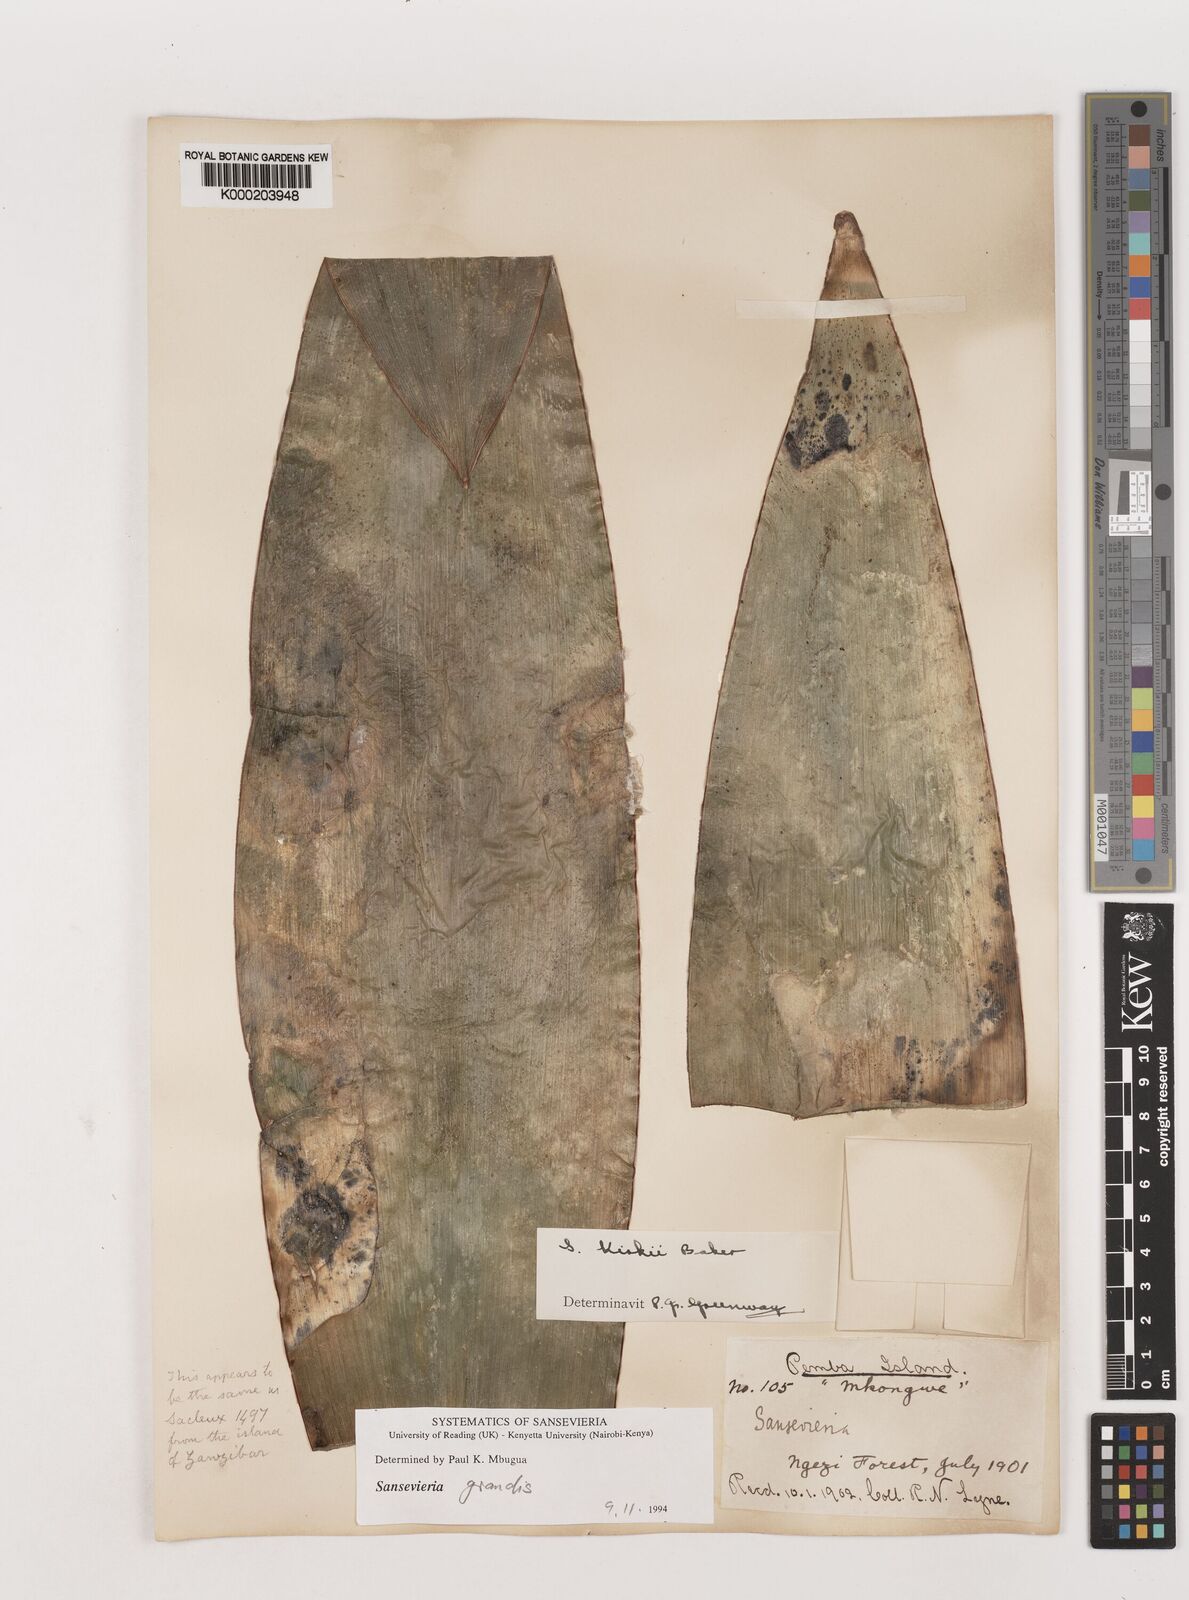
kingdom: Plantae
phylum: Tracheophyta
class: Liliopsida
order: Asparagales
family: Asparagaceae
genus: Dracaena
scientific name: Dracaena pethera
